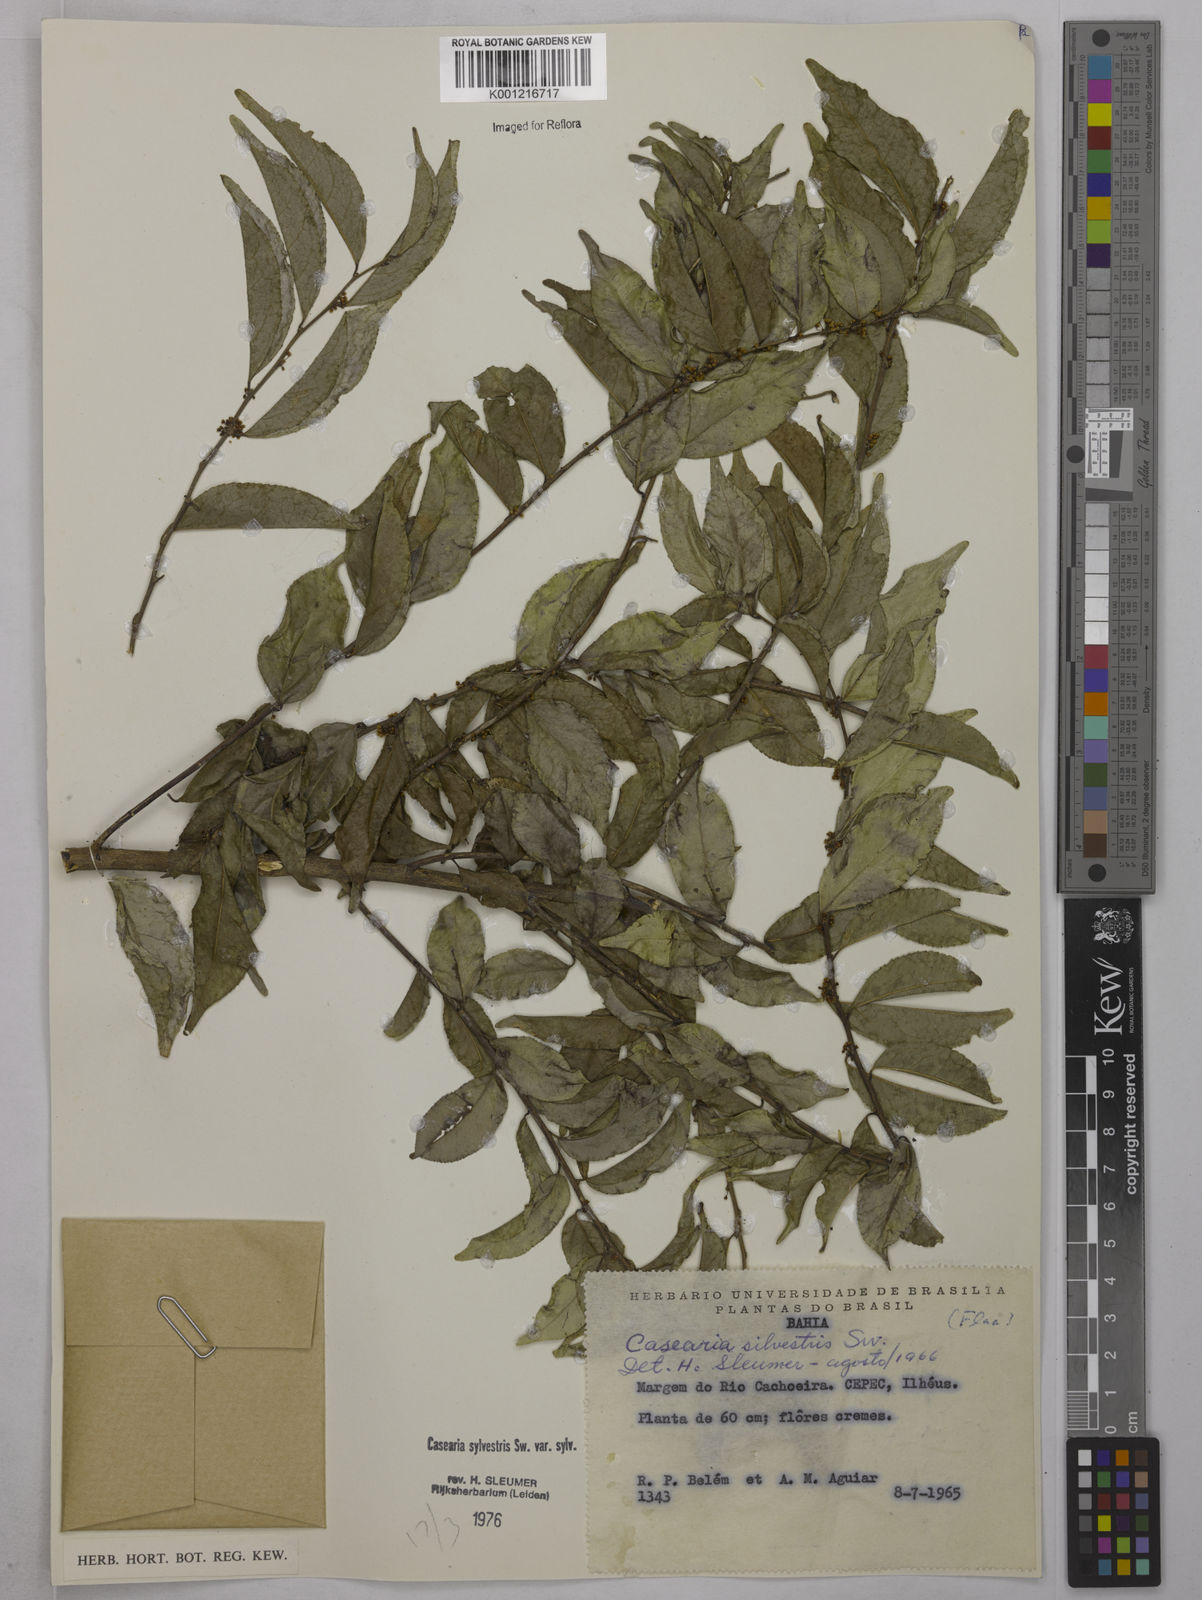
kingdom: Plantae
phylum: Tracheophyta
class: Magnoliopsida
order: Malpighiales
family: Salicaceae
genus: Casearia
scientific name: Casearia sylvestris
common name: Wild sage
